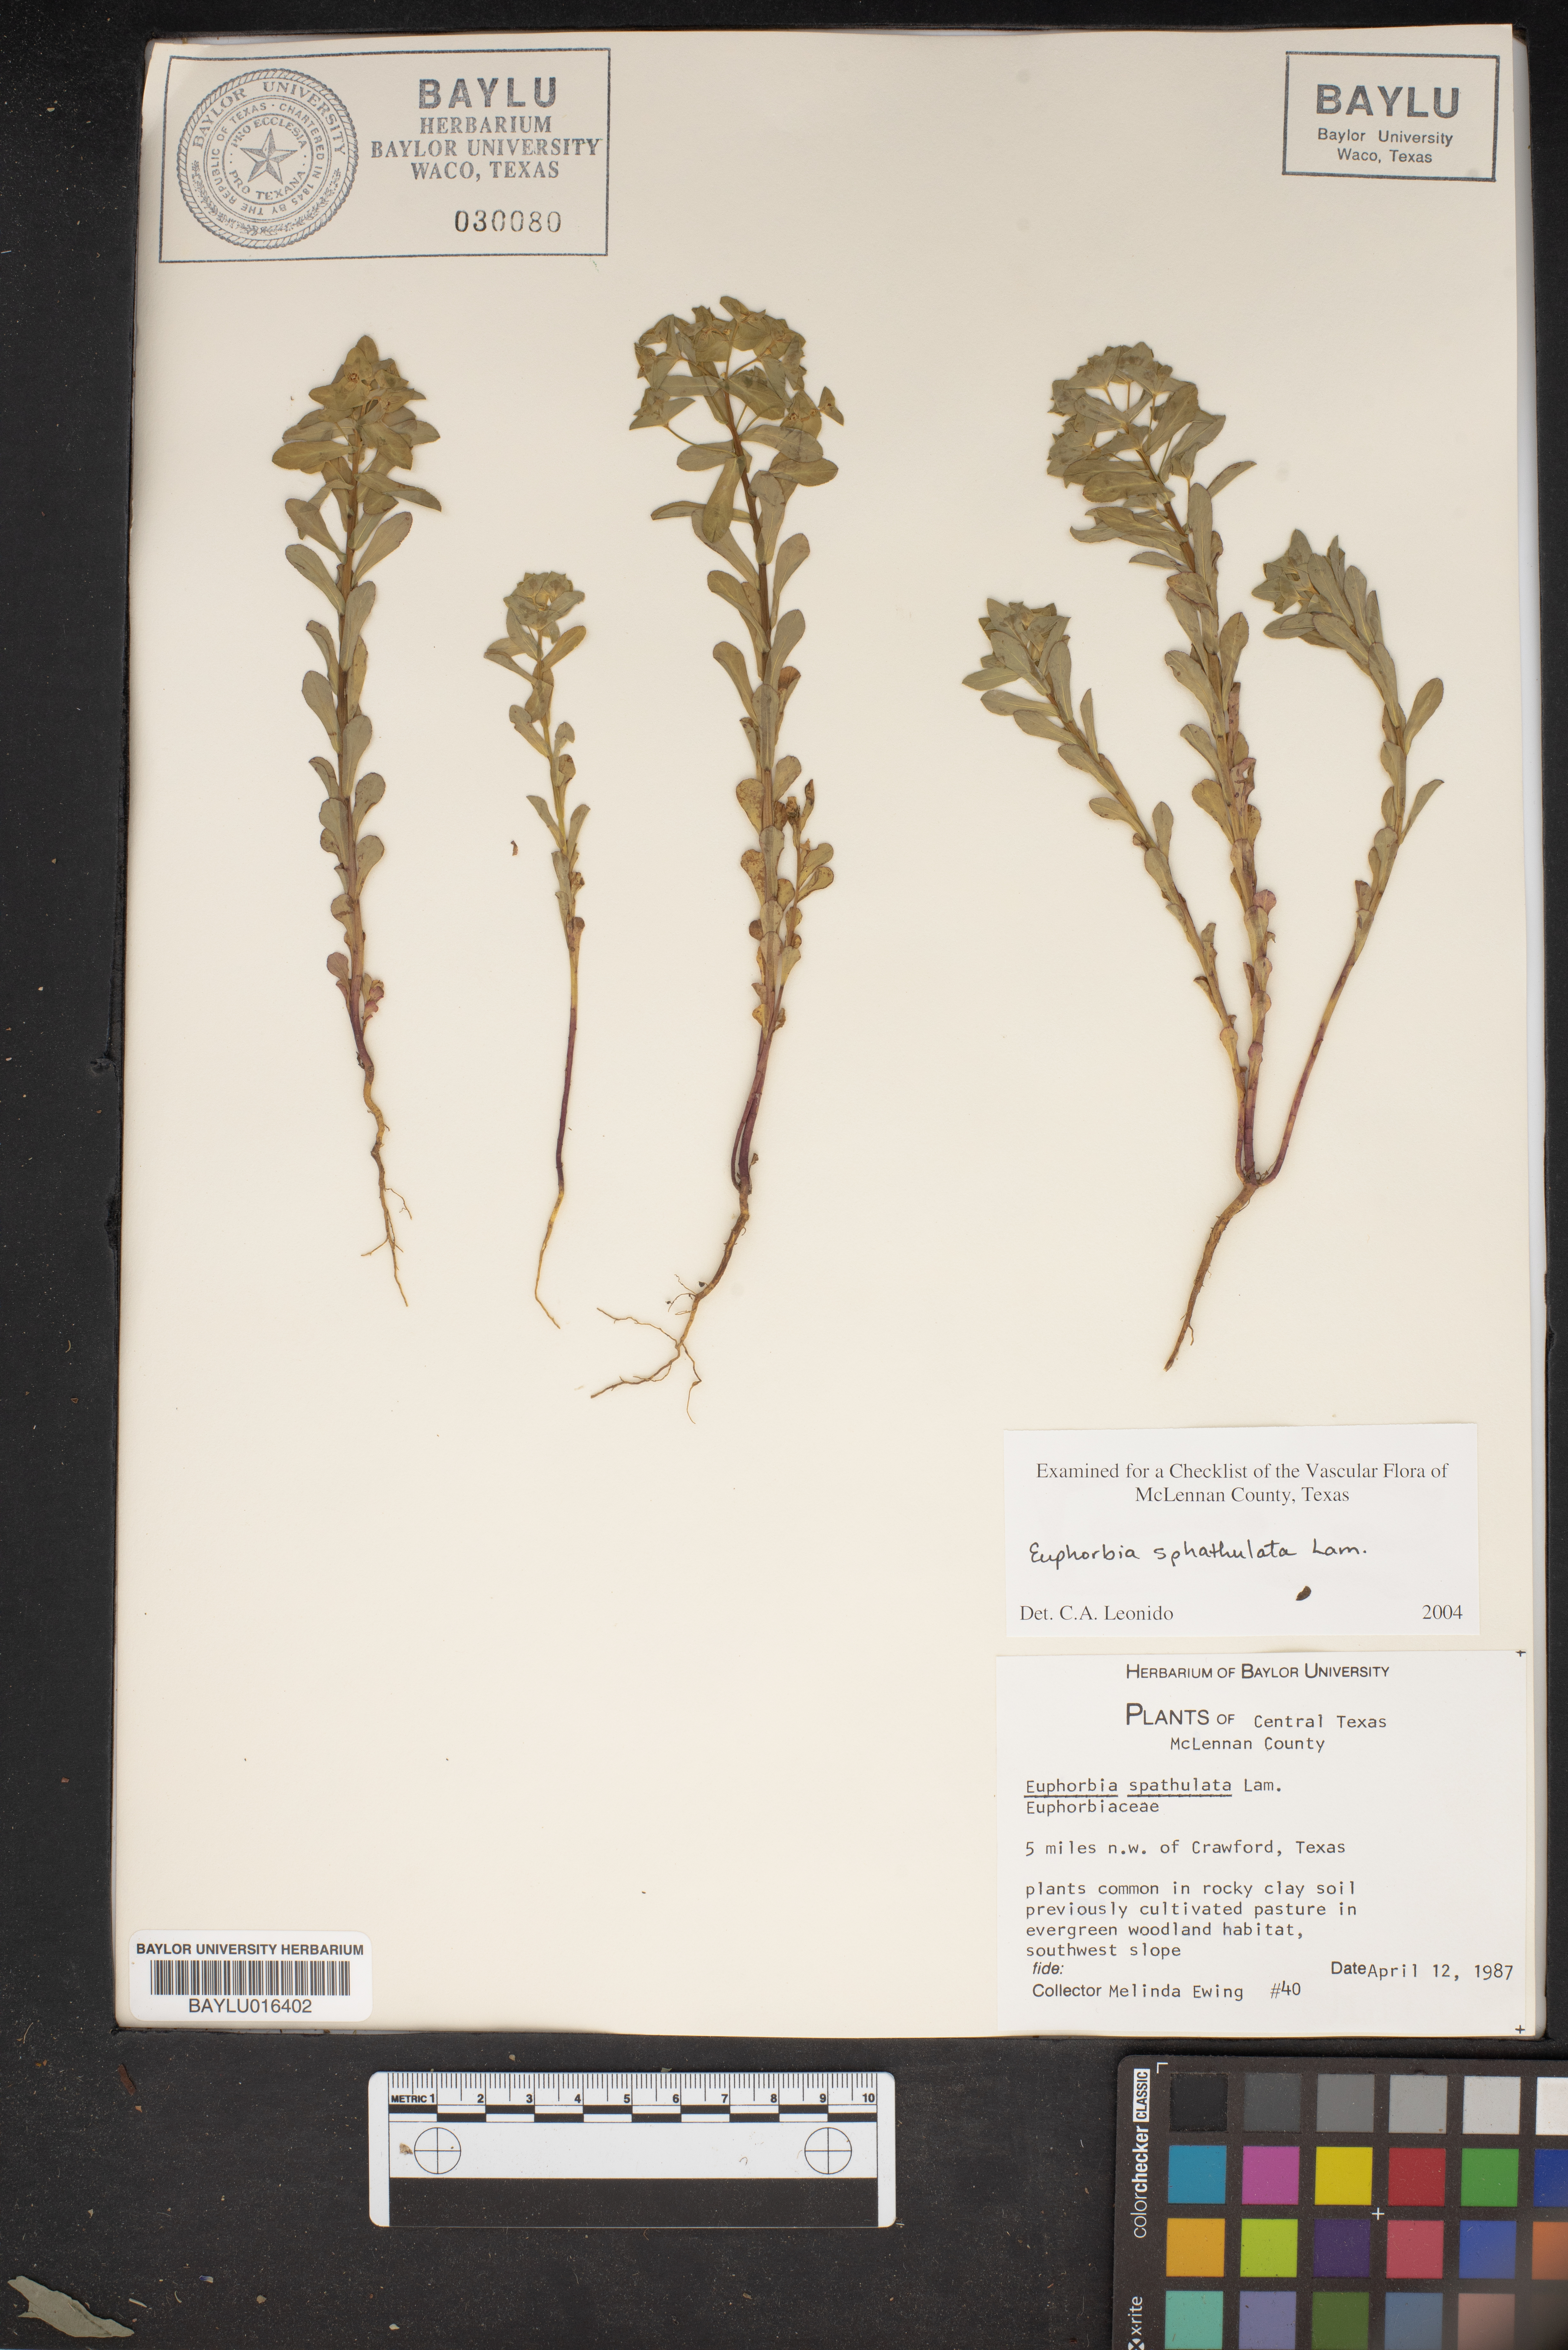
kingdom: Plantae
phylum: Tracheophyta
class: Magnoliopsida
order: Malpighiales
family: Euphorbiaceae
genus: Euphorbia
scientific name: Euphorbia spathulata
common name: Blunt spurge
